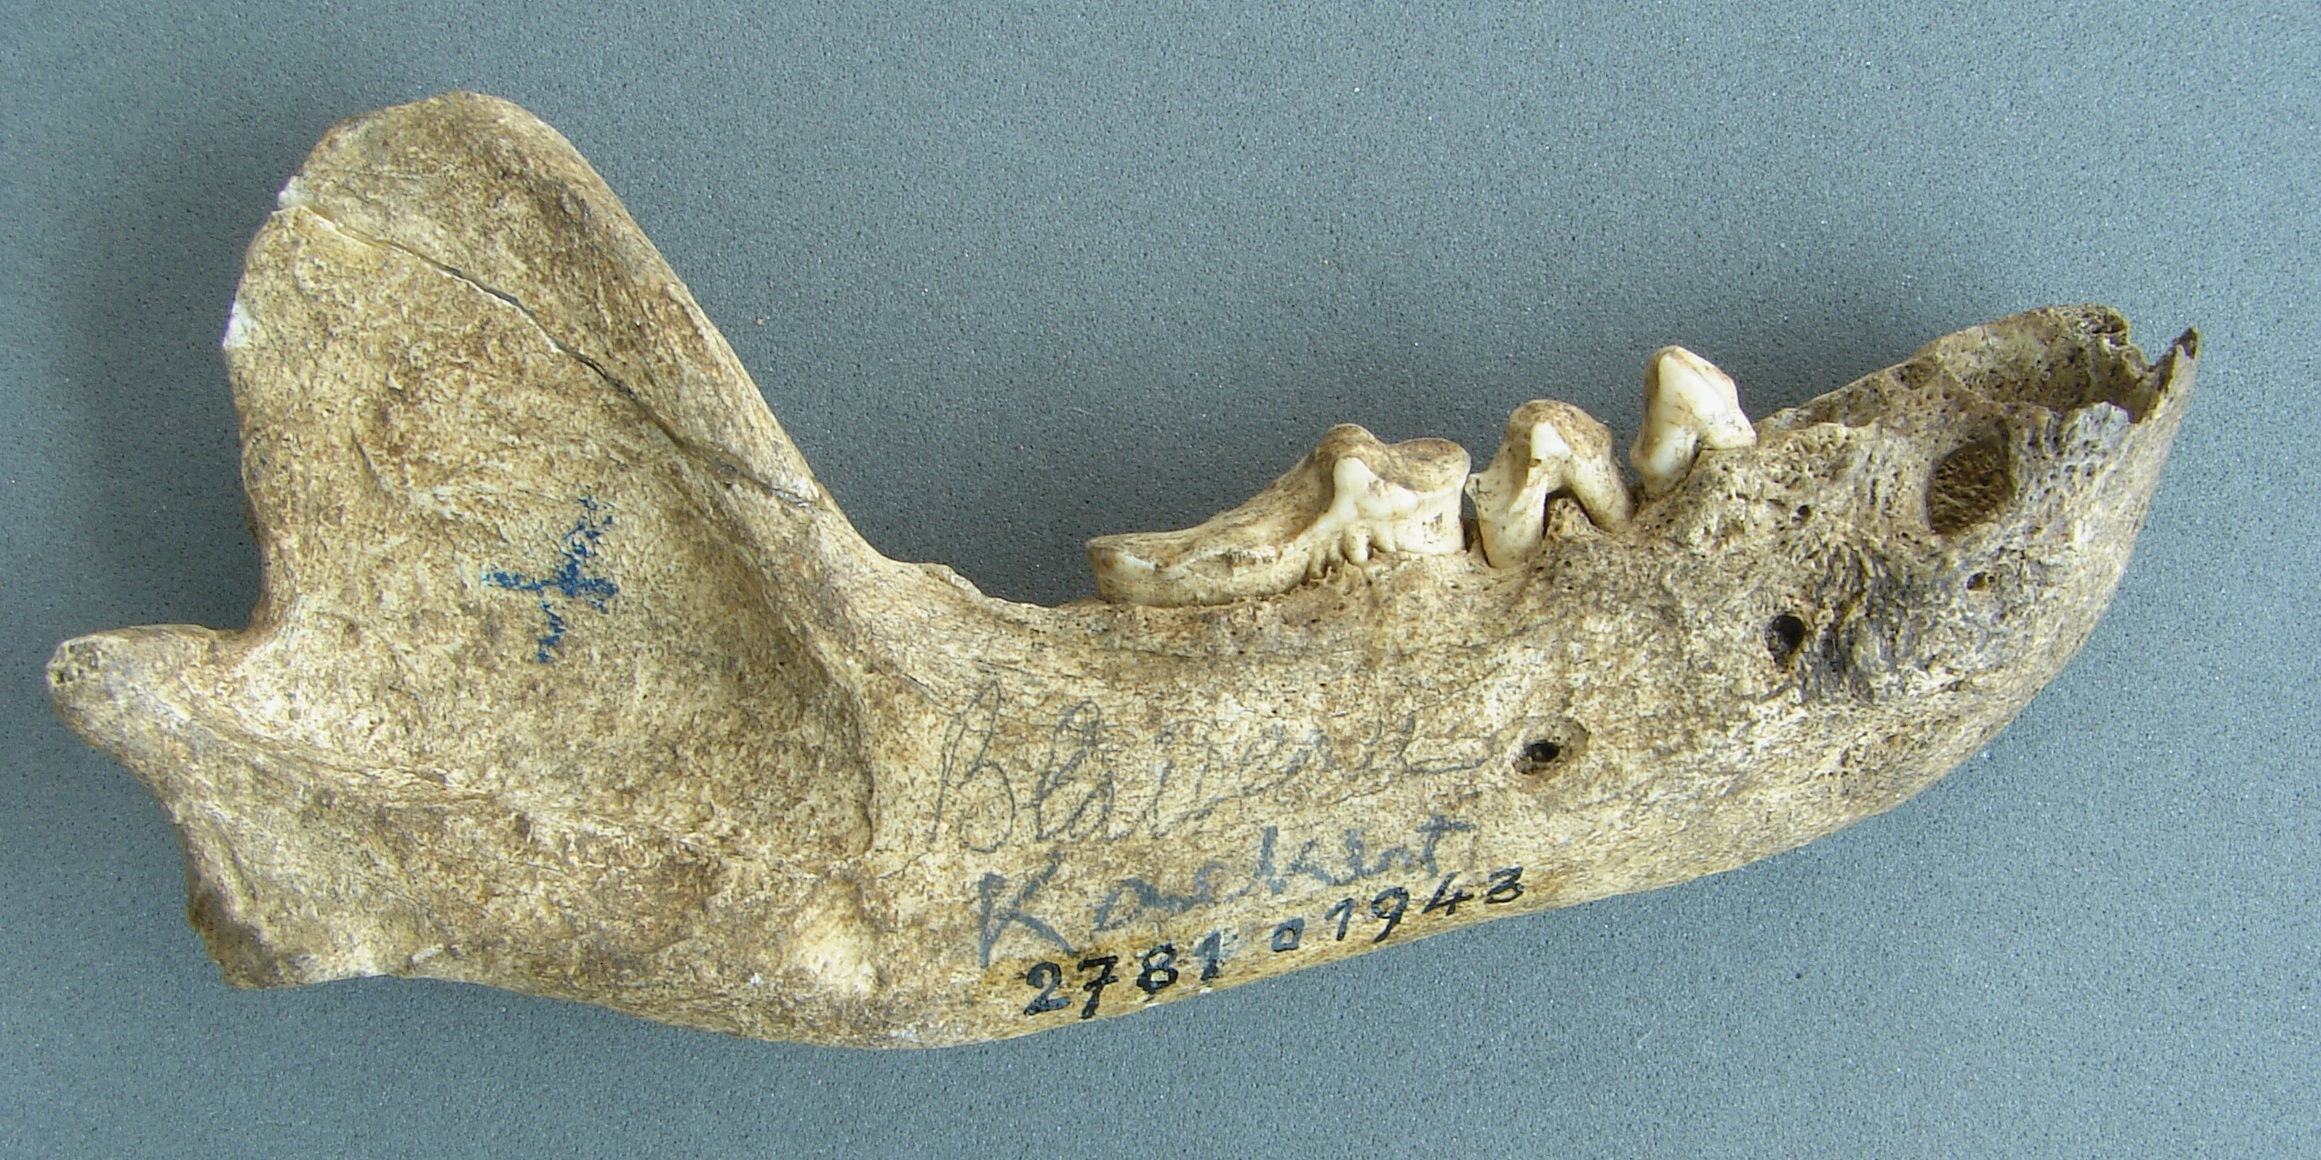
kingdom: Animalia
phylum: Chordata
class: Mammalia
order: Carnivora
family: Mustelidae
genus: Meles
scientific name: Meles meles
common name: Eurasian badger
